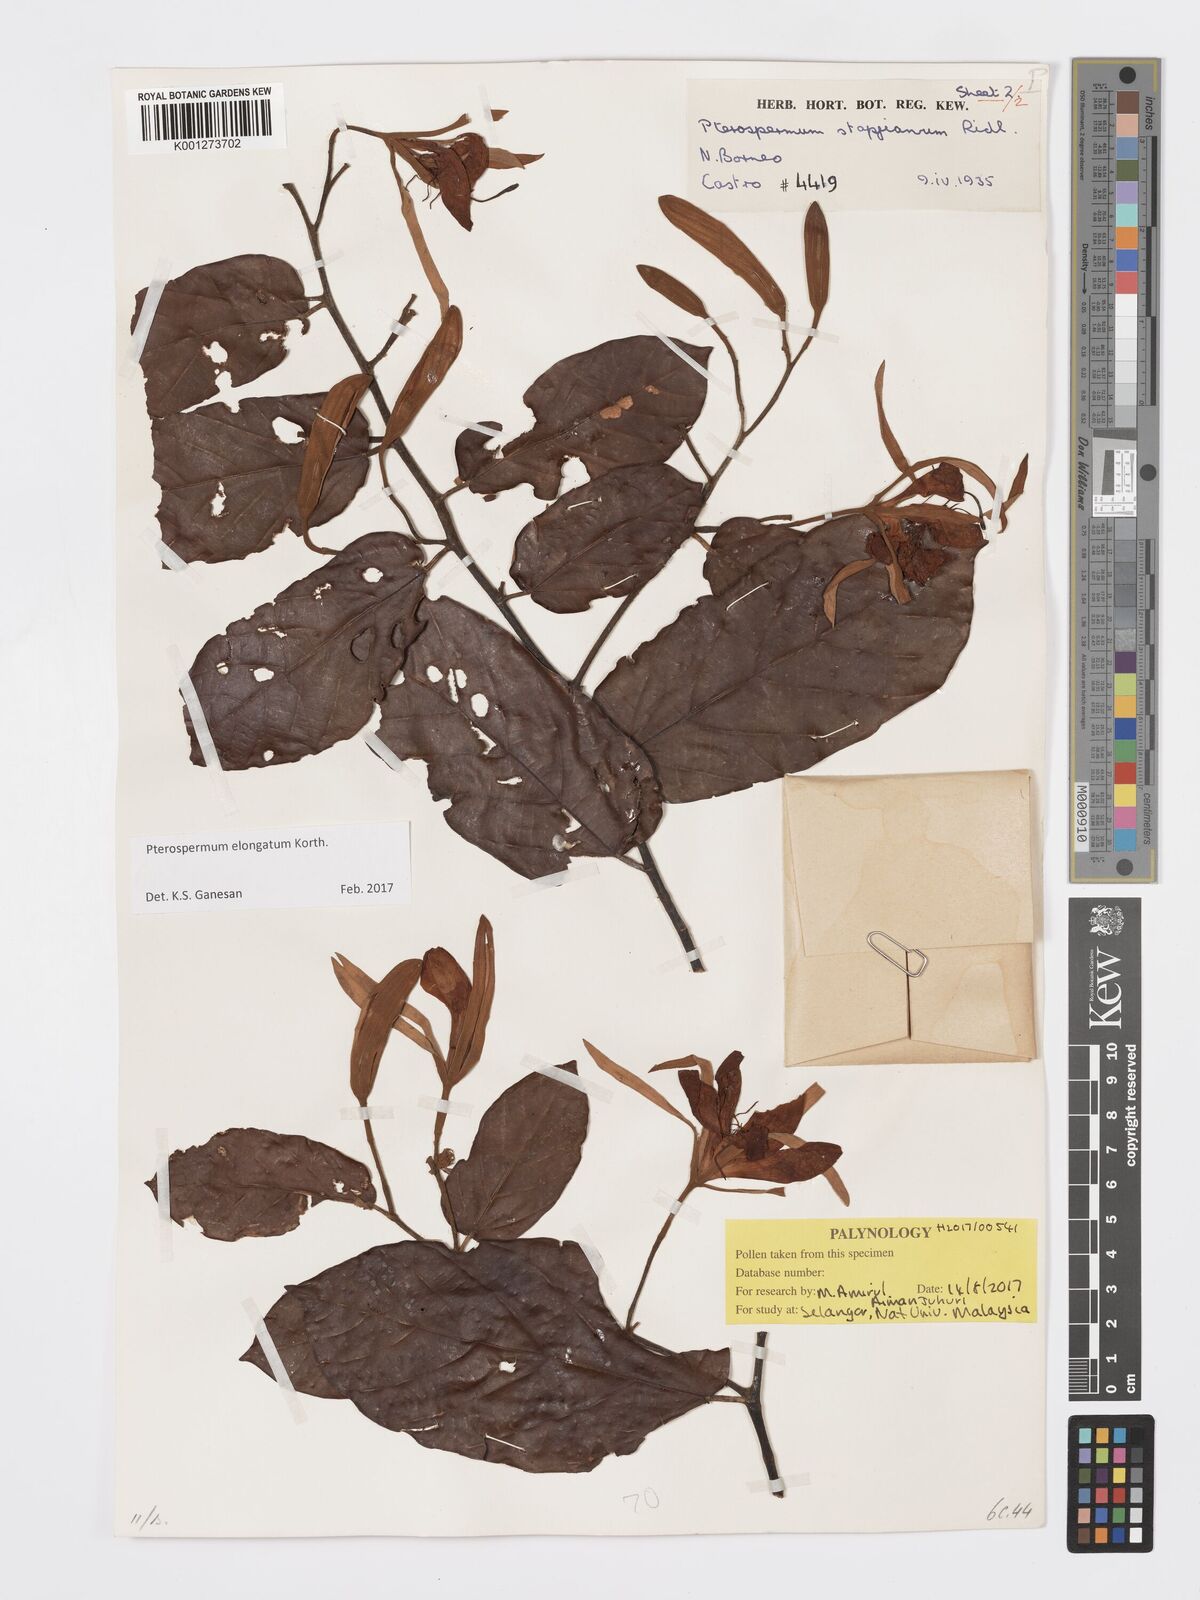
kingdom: Plantae
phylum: Tracheophyta
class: Magnoliopsida
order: Malvales
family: Malvaceae
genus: Pterospermum
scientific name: Pterospermum elongatum
